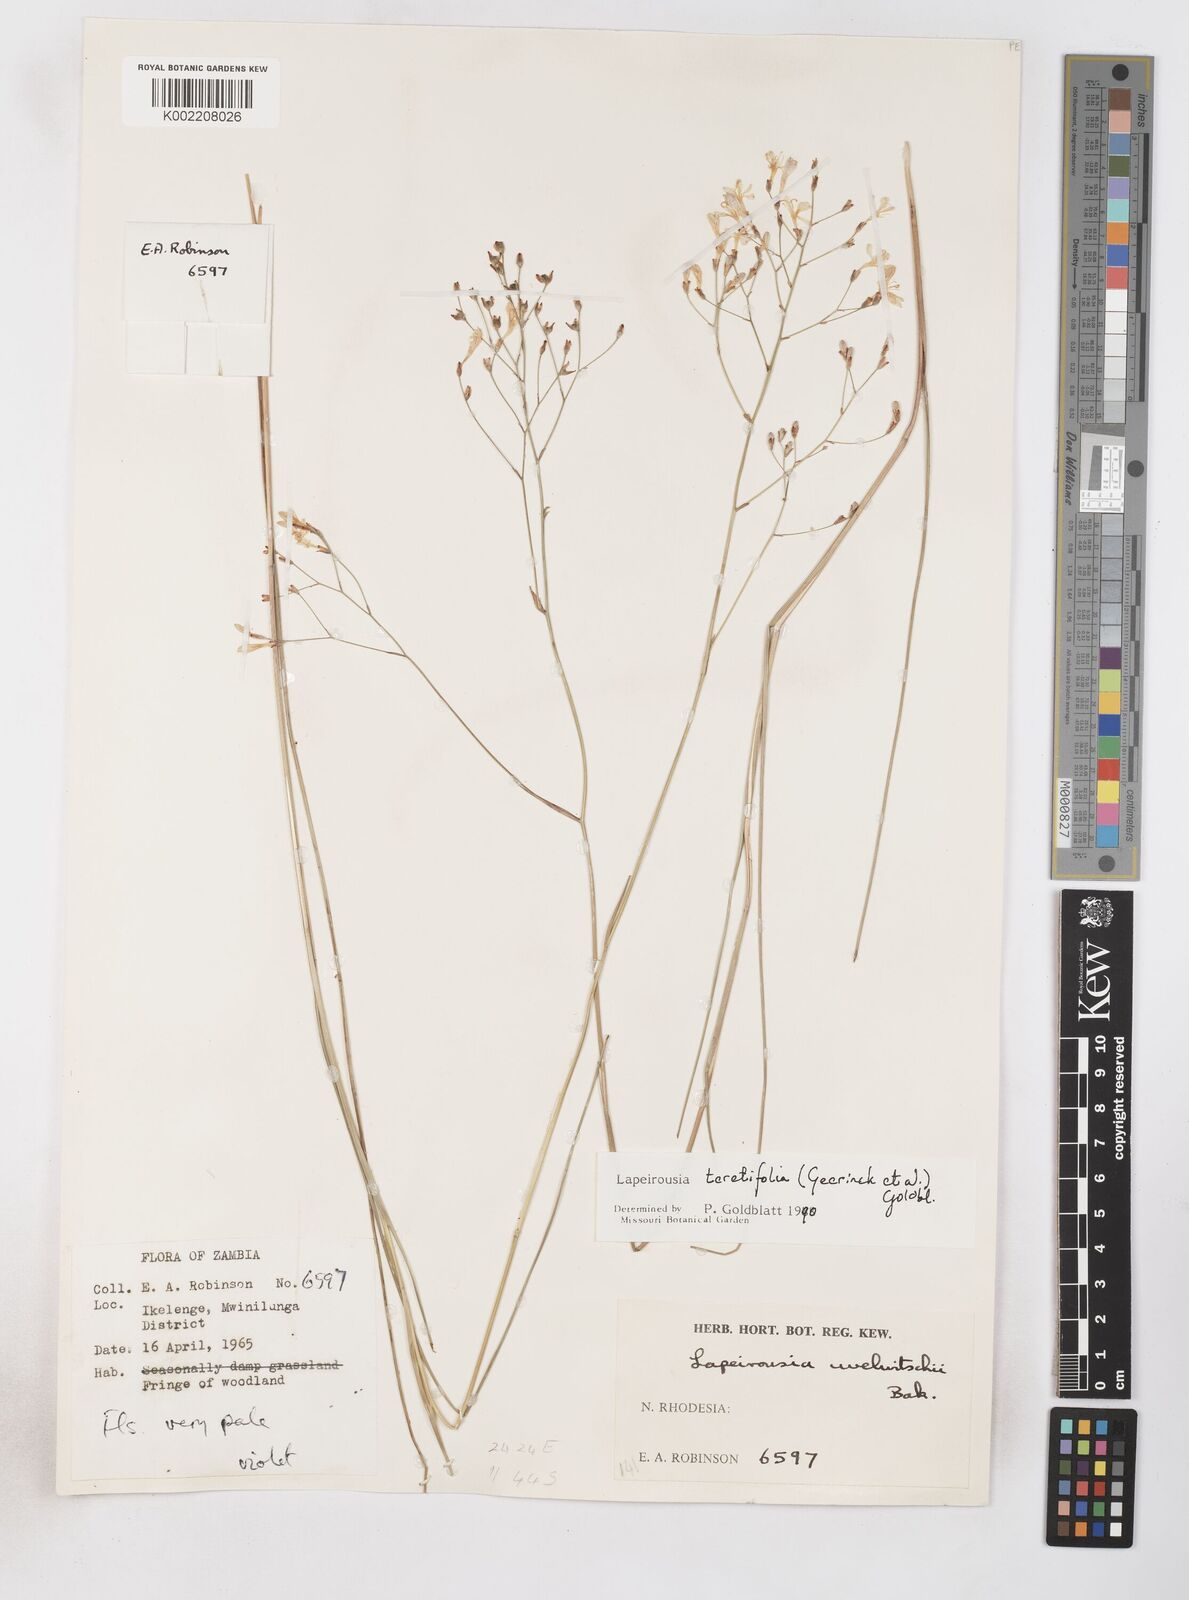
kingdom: Plantae
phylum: Tracheophyta
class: Liliopsida
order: Asparagales
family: Iridaceae
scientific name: Iridaceae
